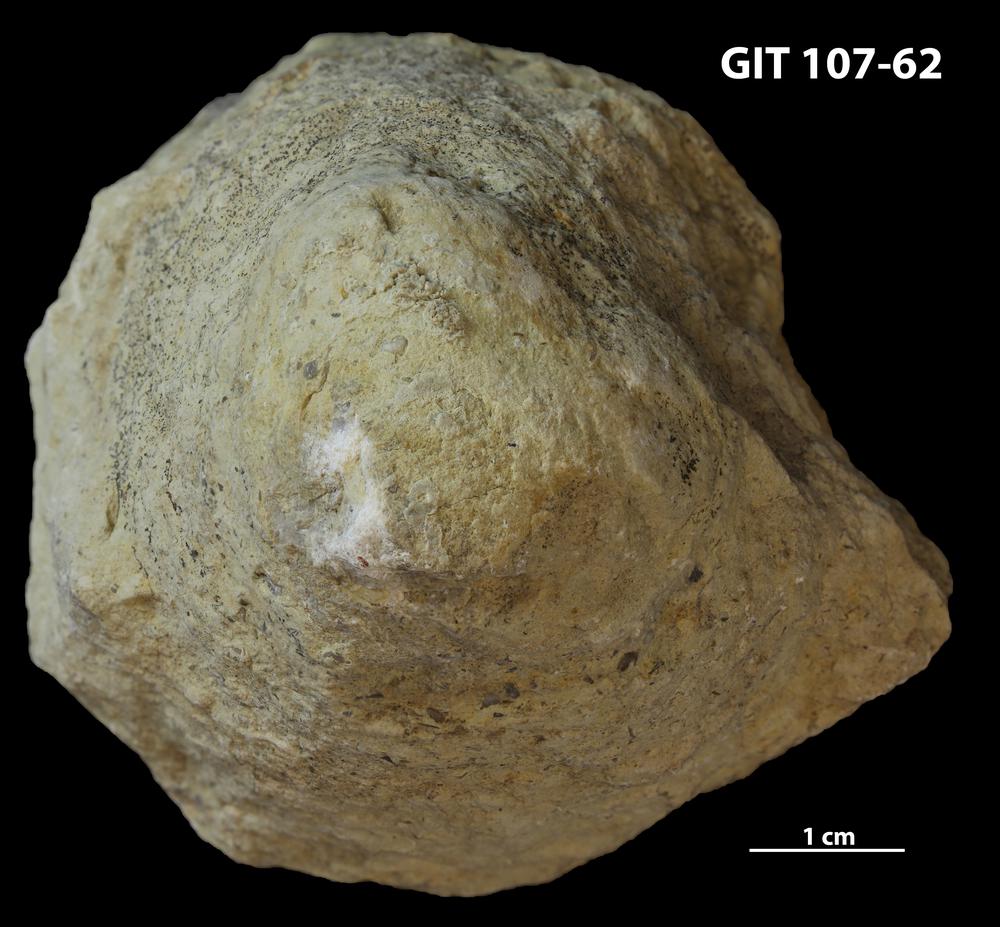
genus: Conichnus
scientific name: Conichnus
